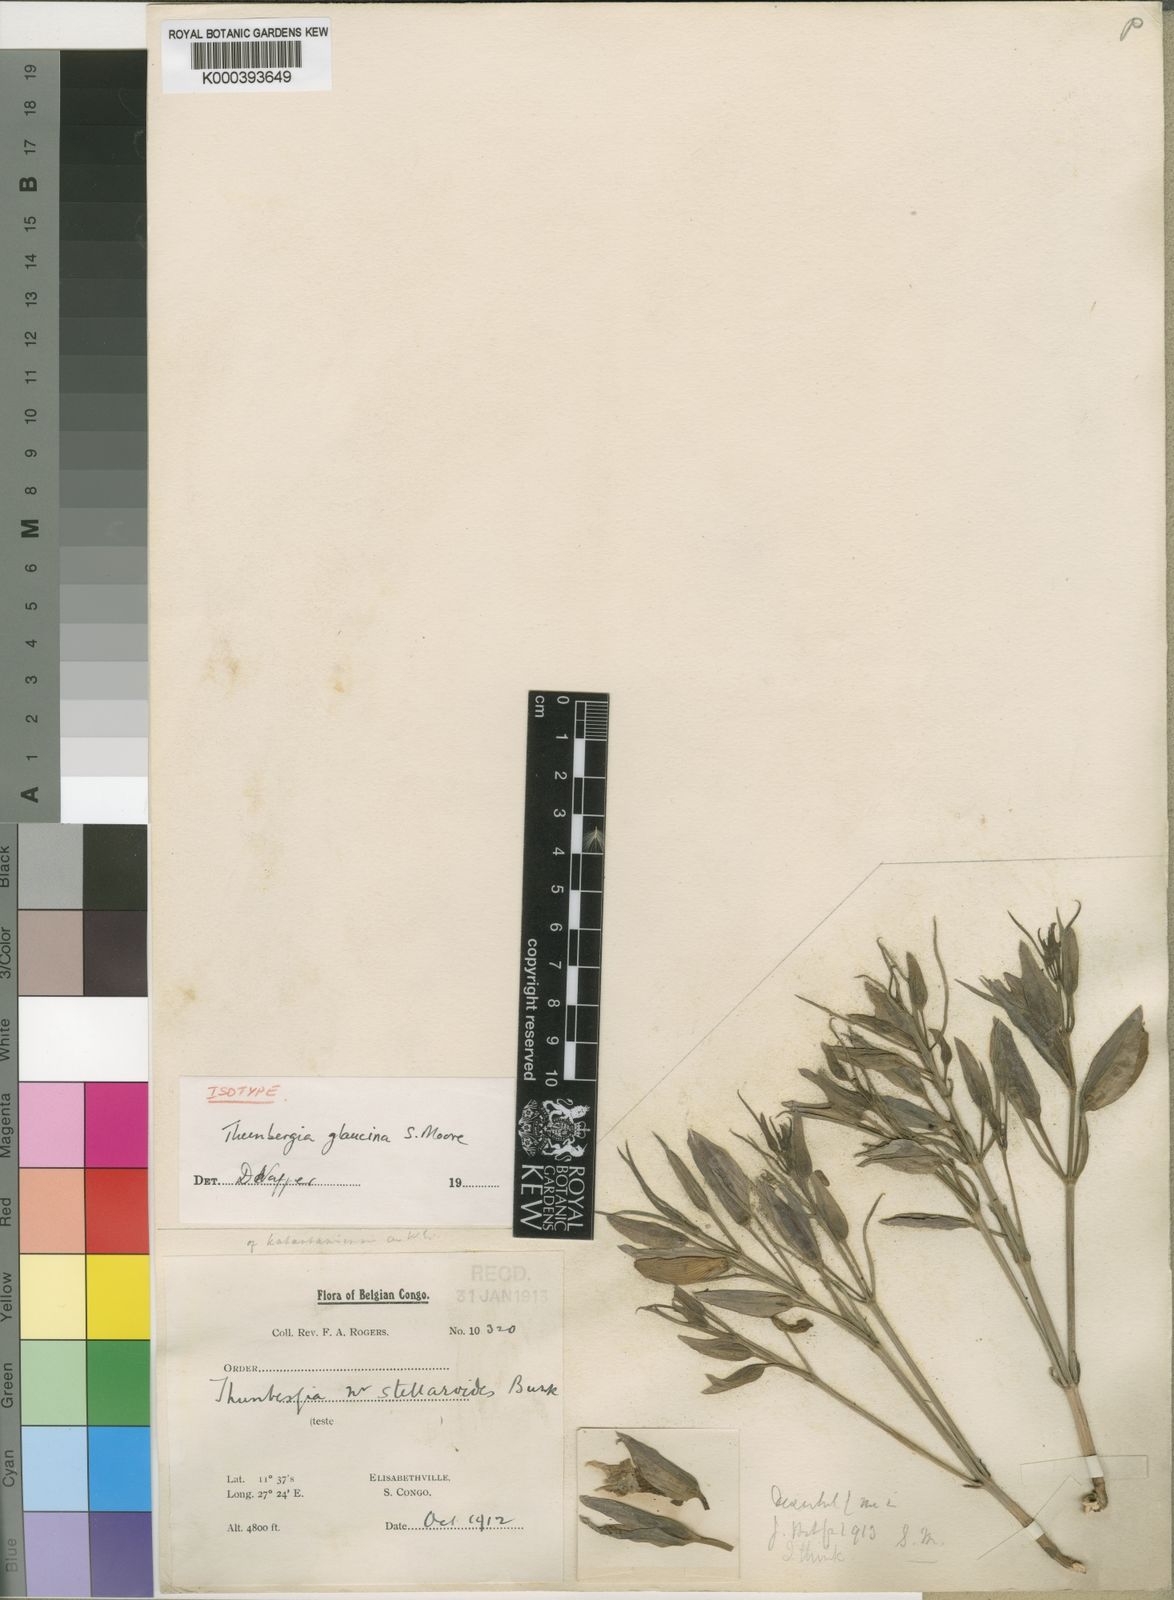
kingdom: Plantae
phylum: Tracheophyta
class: Magnoliopsida
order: Lamiales
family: Acanthaceae
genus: Thunbergia
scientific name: Thunbergia graminifolia
